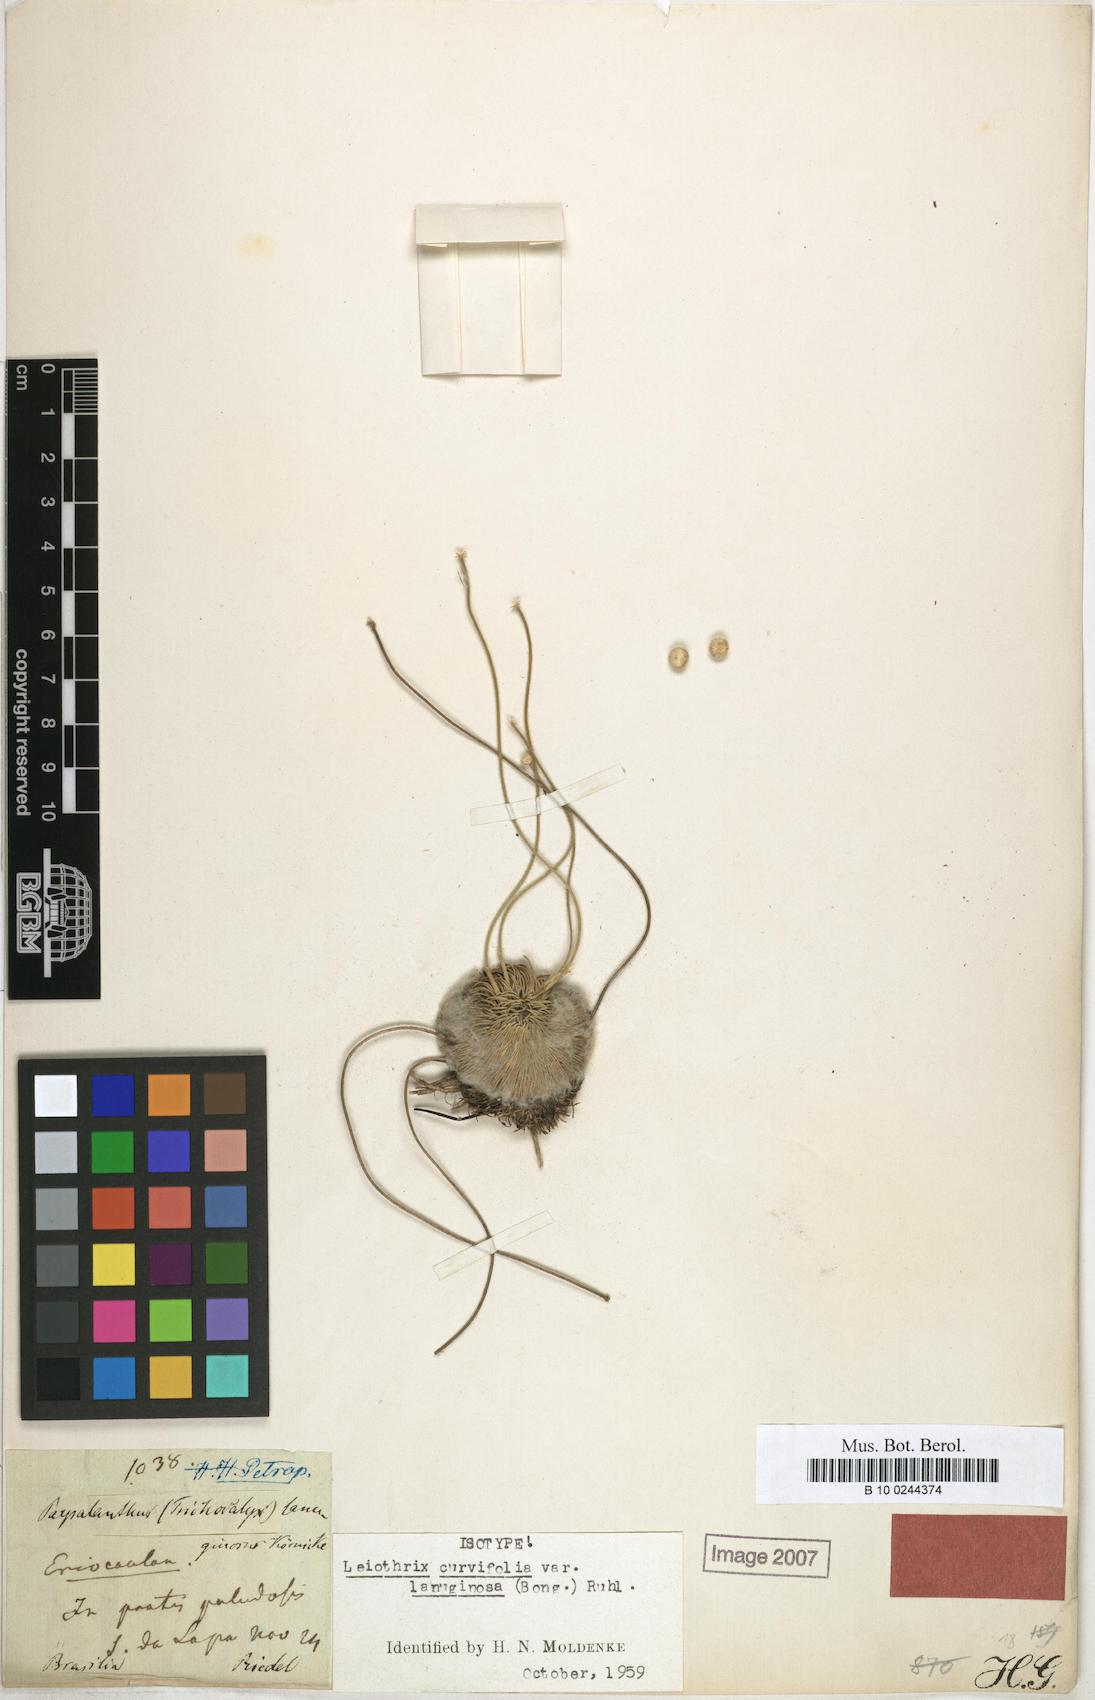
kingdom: Plantae
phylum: Tracheophyta
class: Liliopsida
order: Poales
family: Eriocaulaceae
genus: Leiothrix
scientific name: Leiothrix curvifolia
